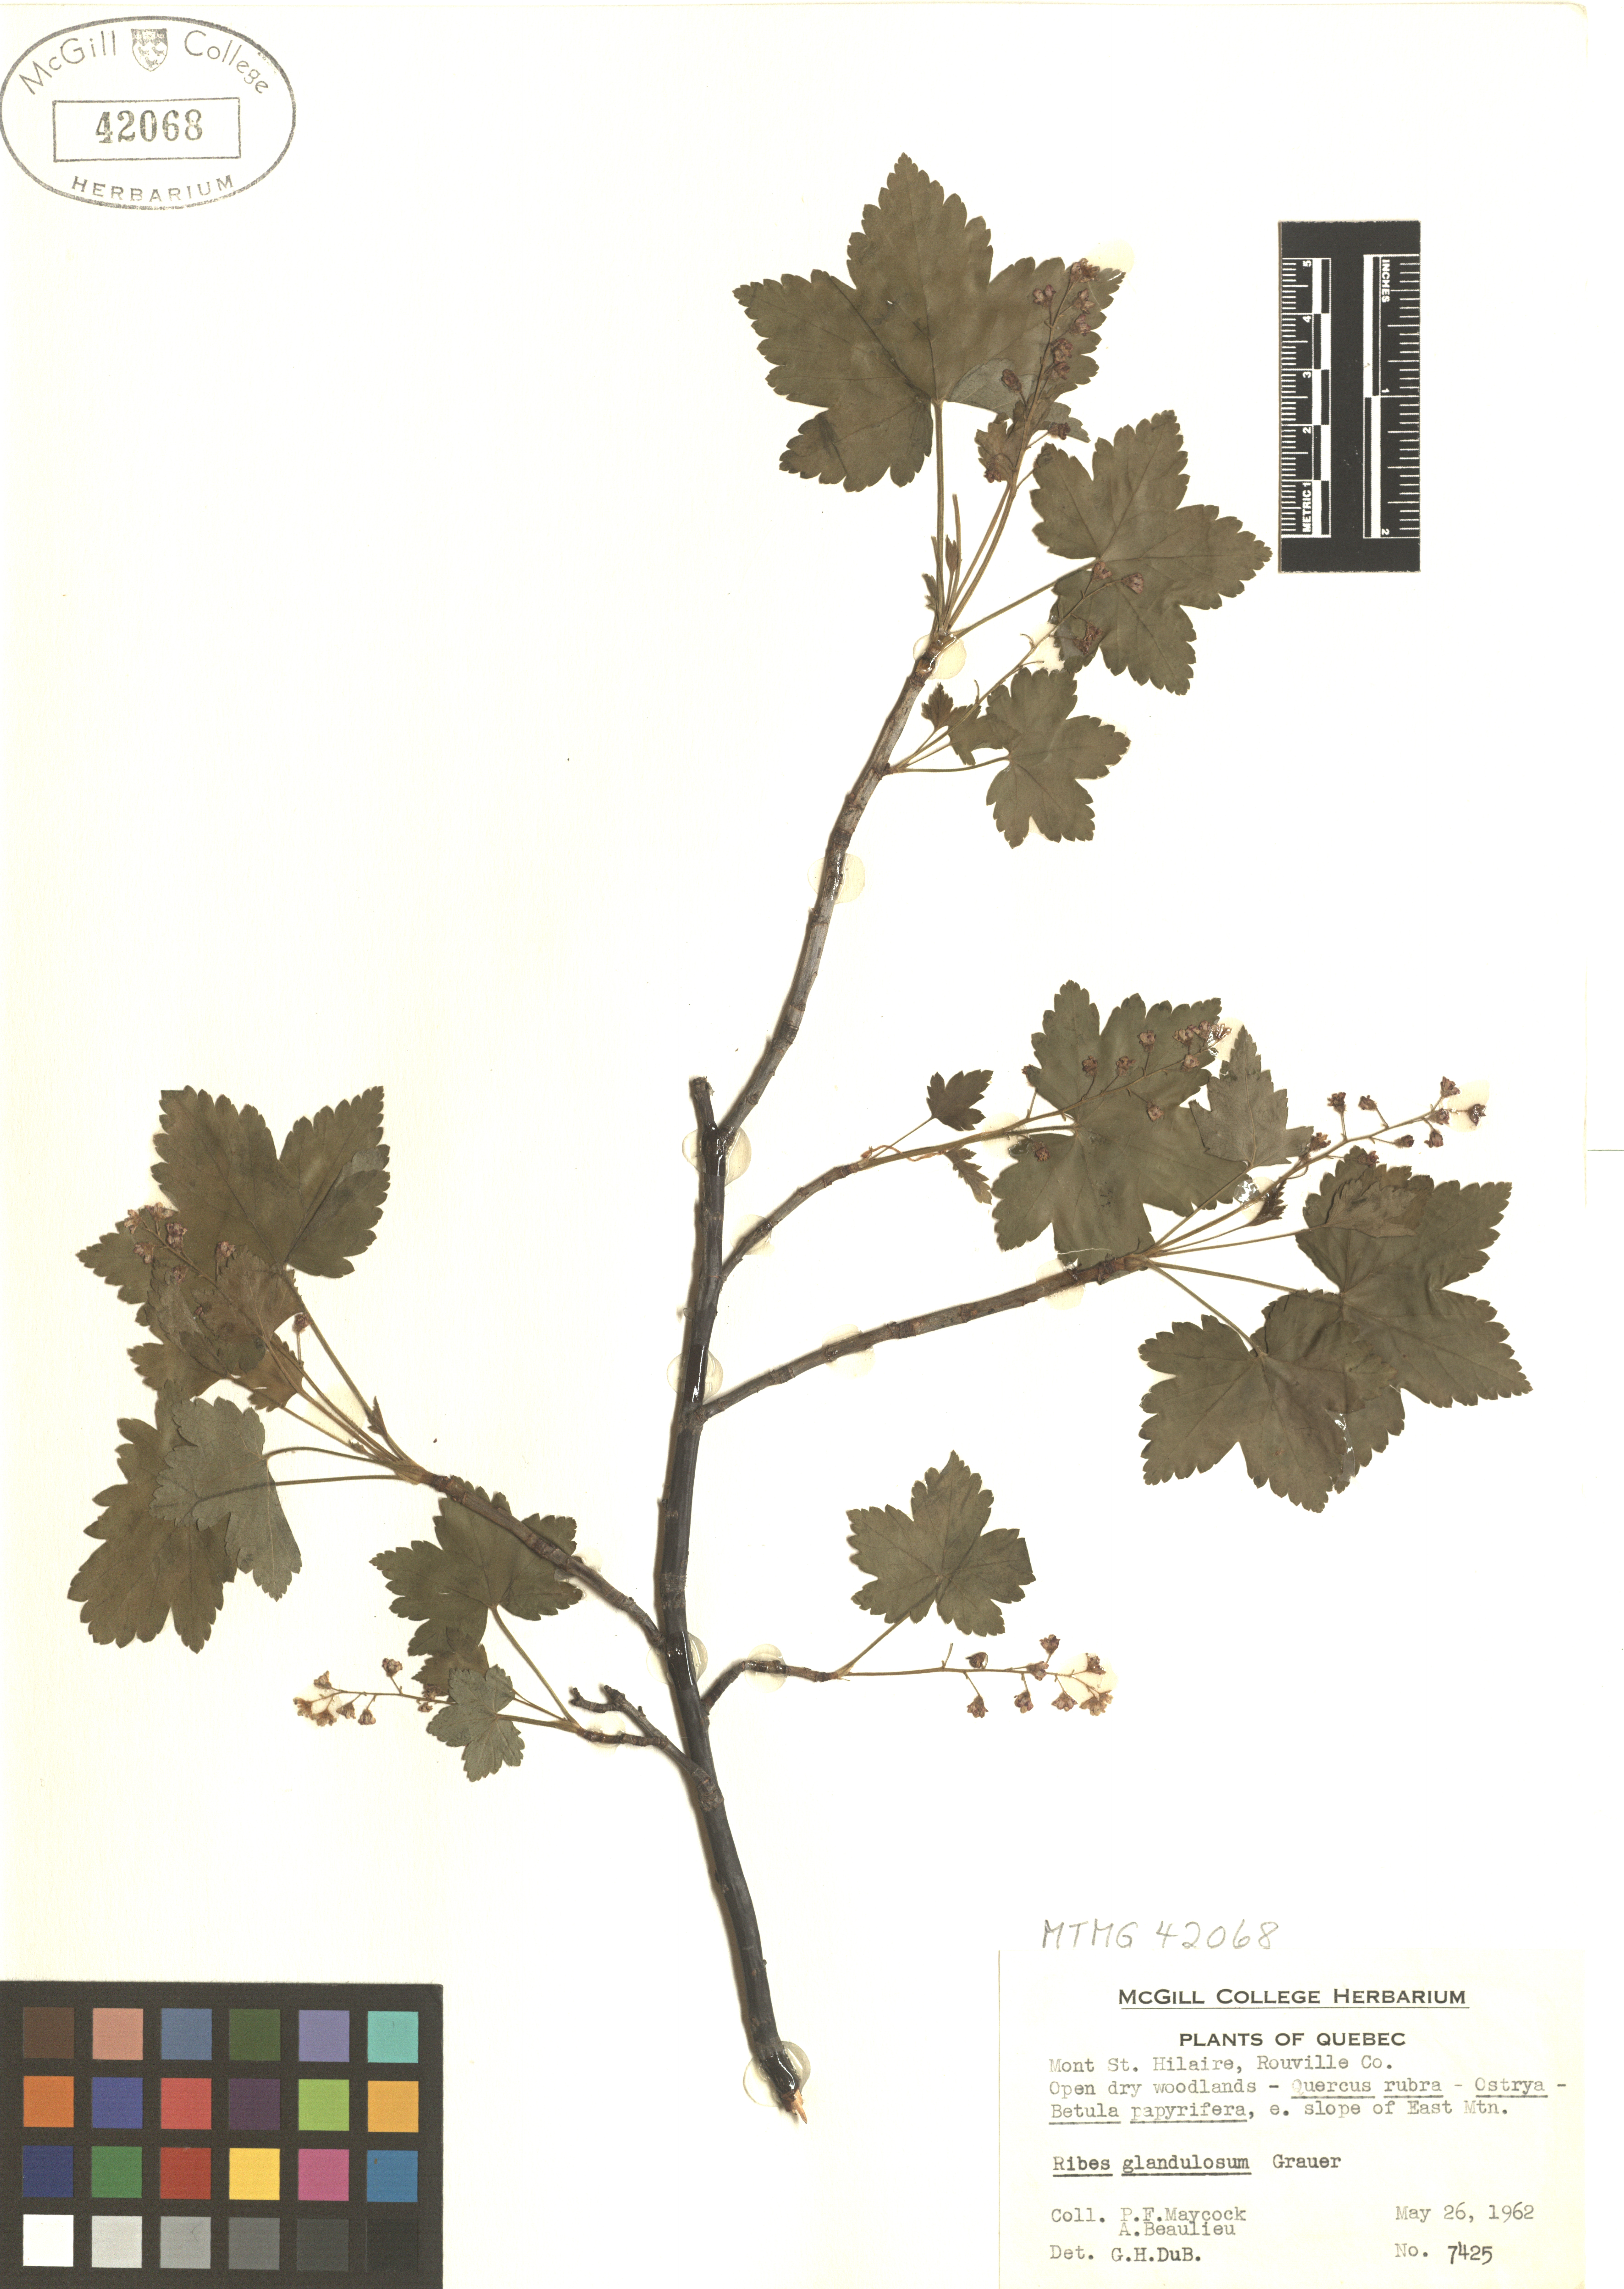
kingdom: Plantae
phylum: Tracheophyta
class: Magnoliopsida
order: Saxifragales
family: Grossulariaceae
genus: Ribes
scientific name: Ribes glandulosum
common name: Skunk currant
